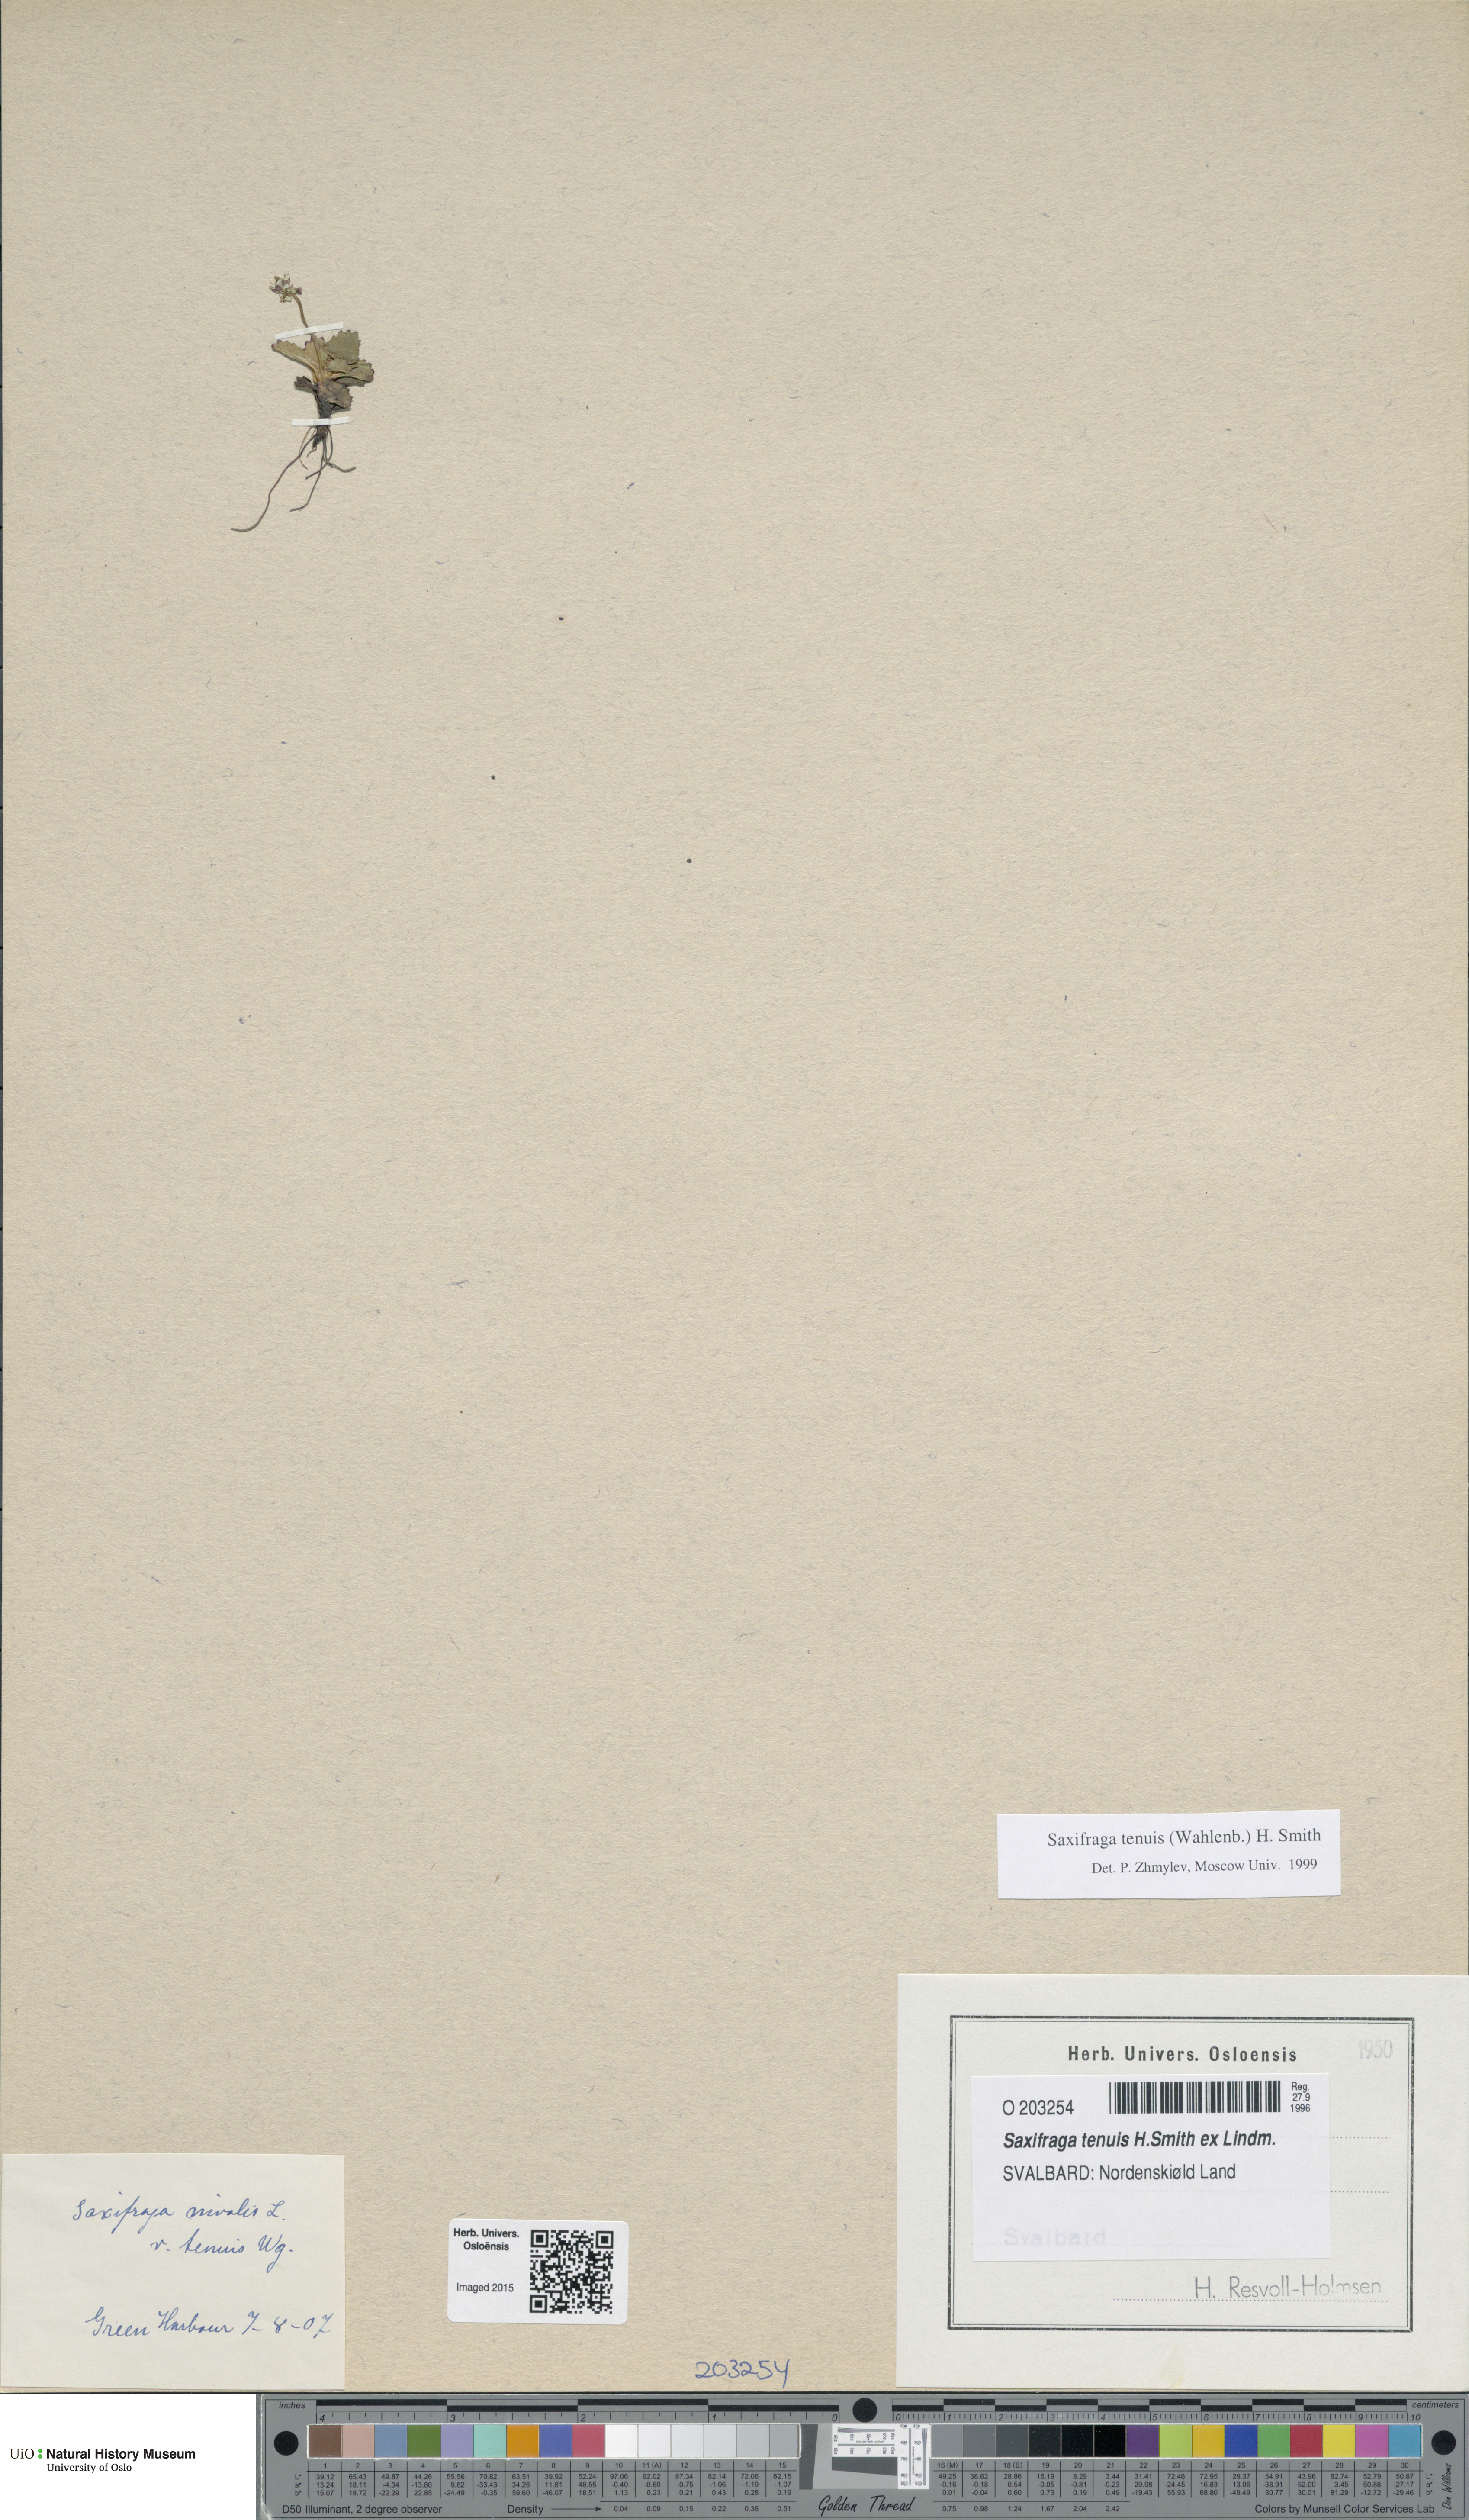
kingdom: Plantae
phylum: Tracheophyta
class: Magnoliopsida
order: Saxifragales
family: Saxifragaceae
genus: Micranthes
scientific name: Micranthes tenuis
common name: Ottertail pass saxifrage
